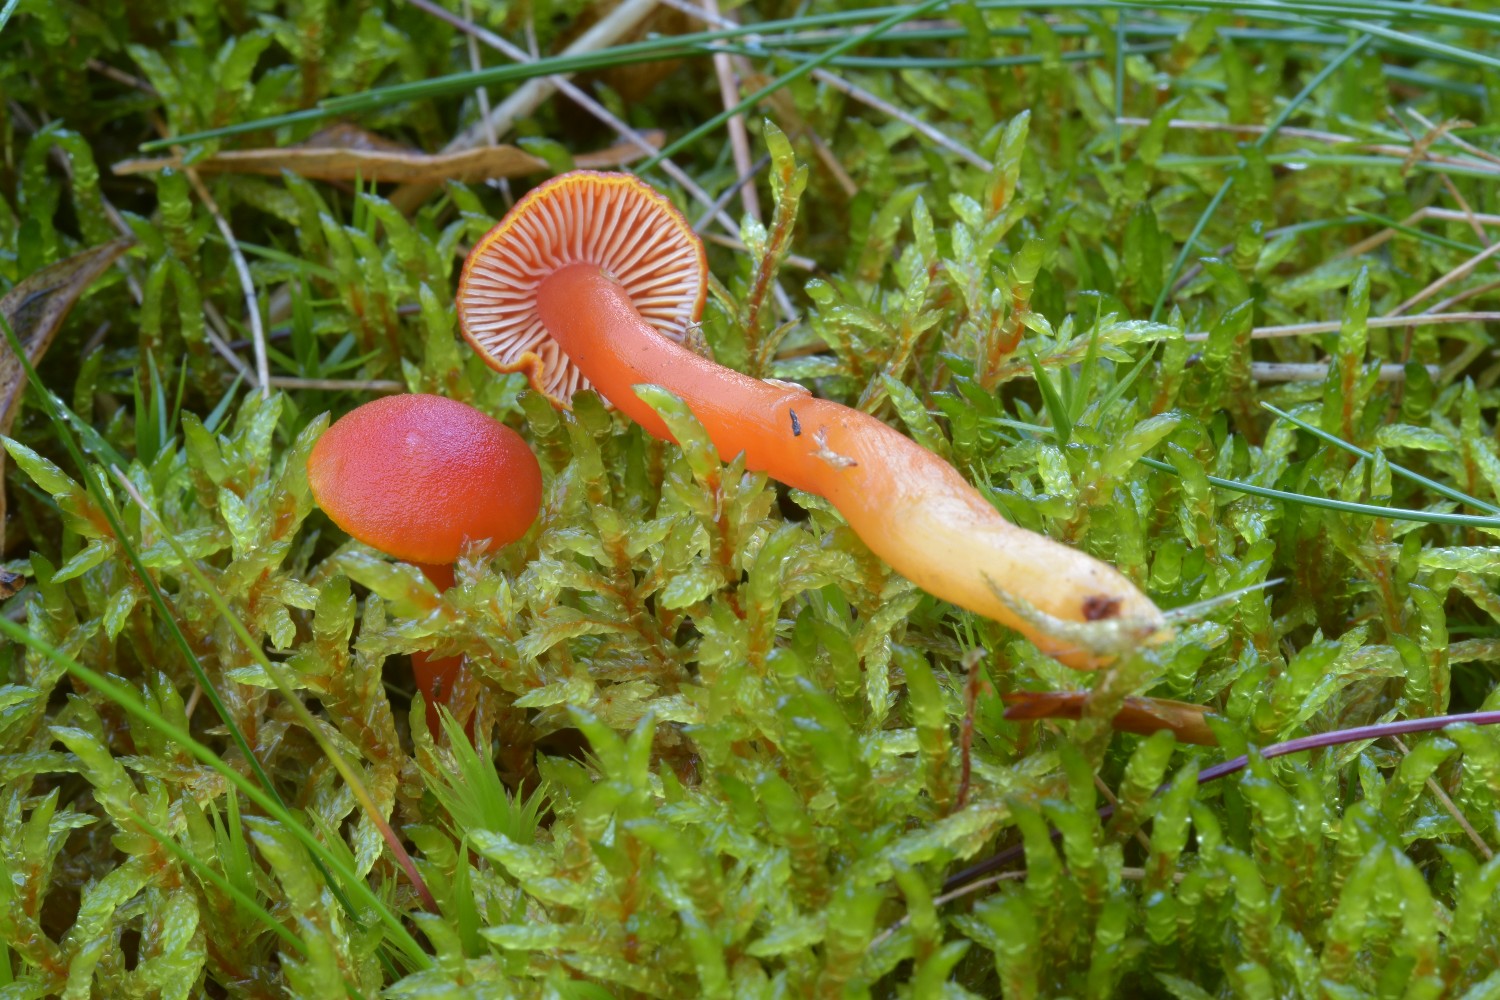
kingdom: Fungi
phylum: Basidiomycota
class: Agaricomycetes
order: Agaricales
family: Hygrophoraceae
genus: Hygrocybe
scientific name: Hygrocybe cantharellus
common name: kantarel-vokshat
